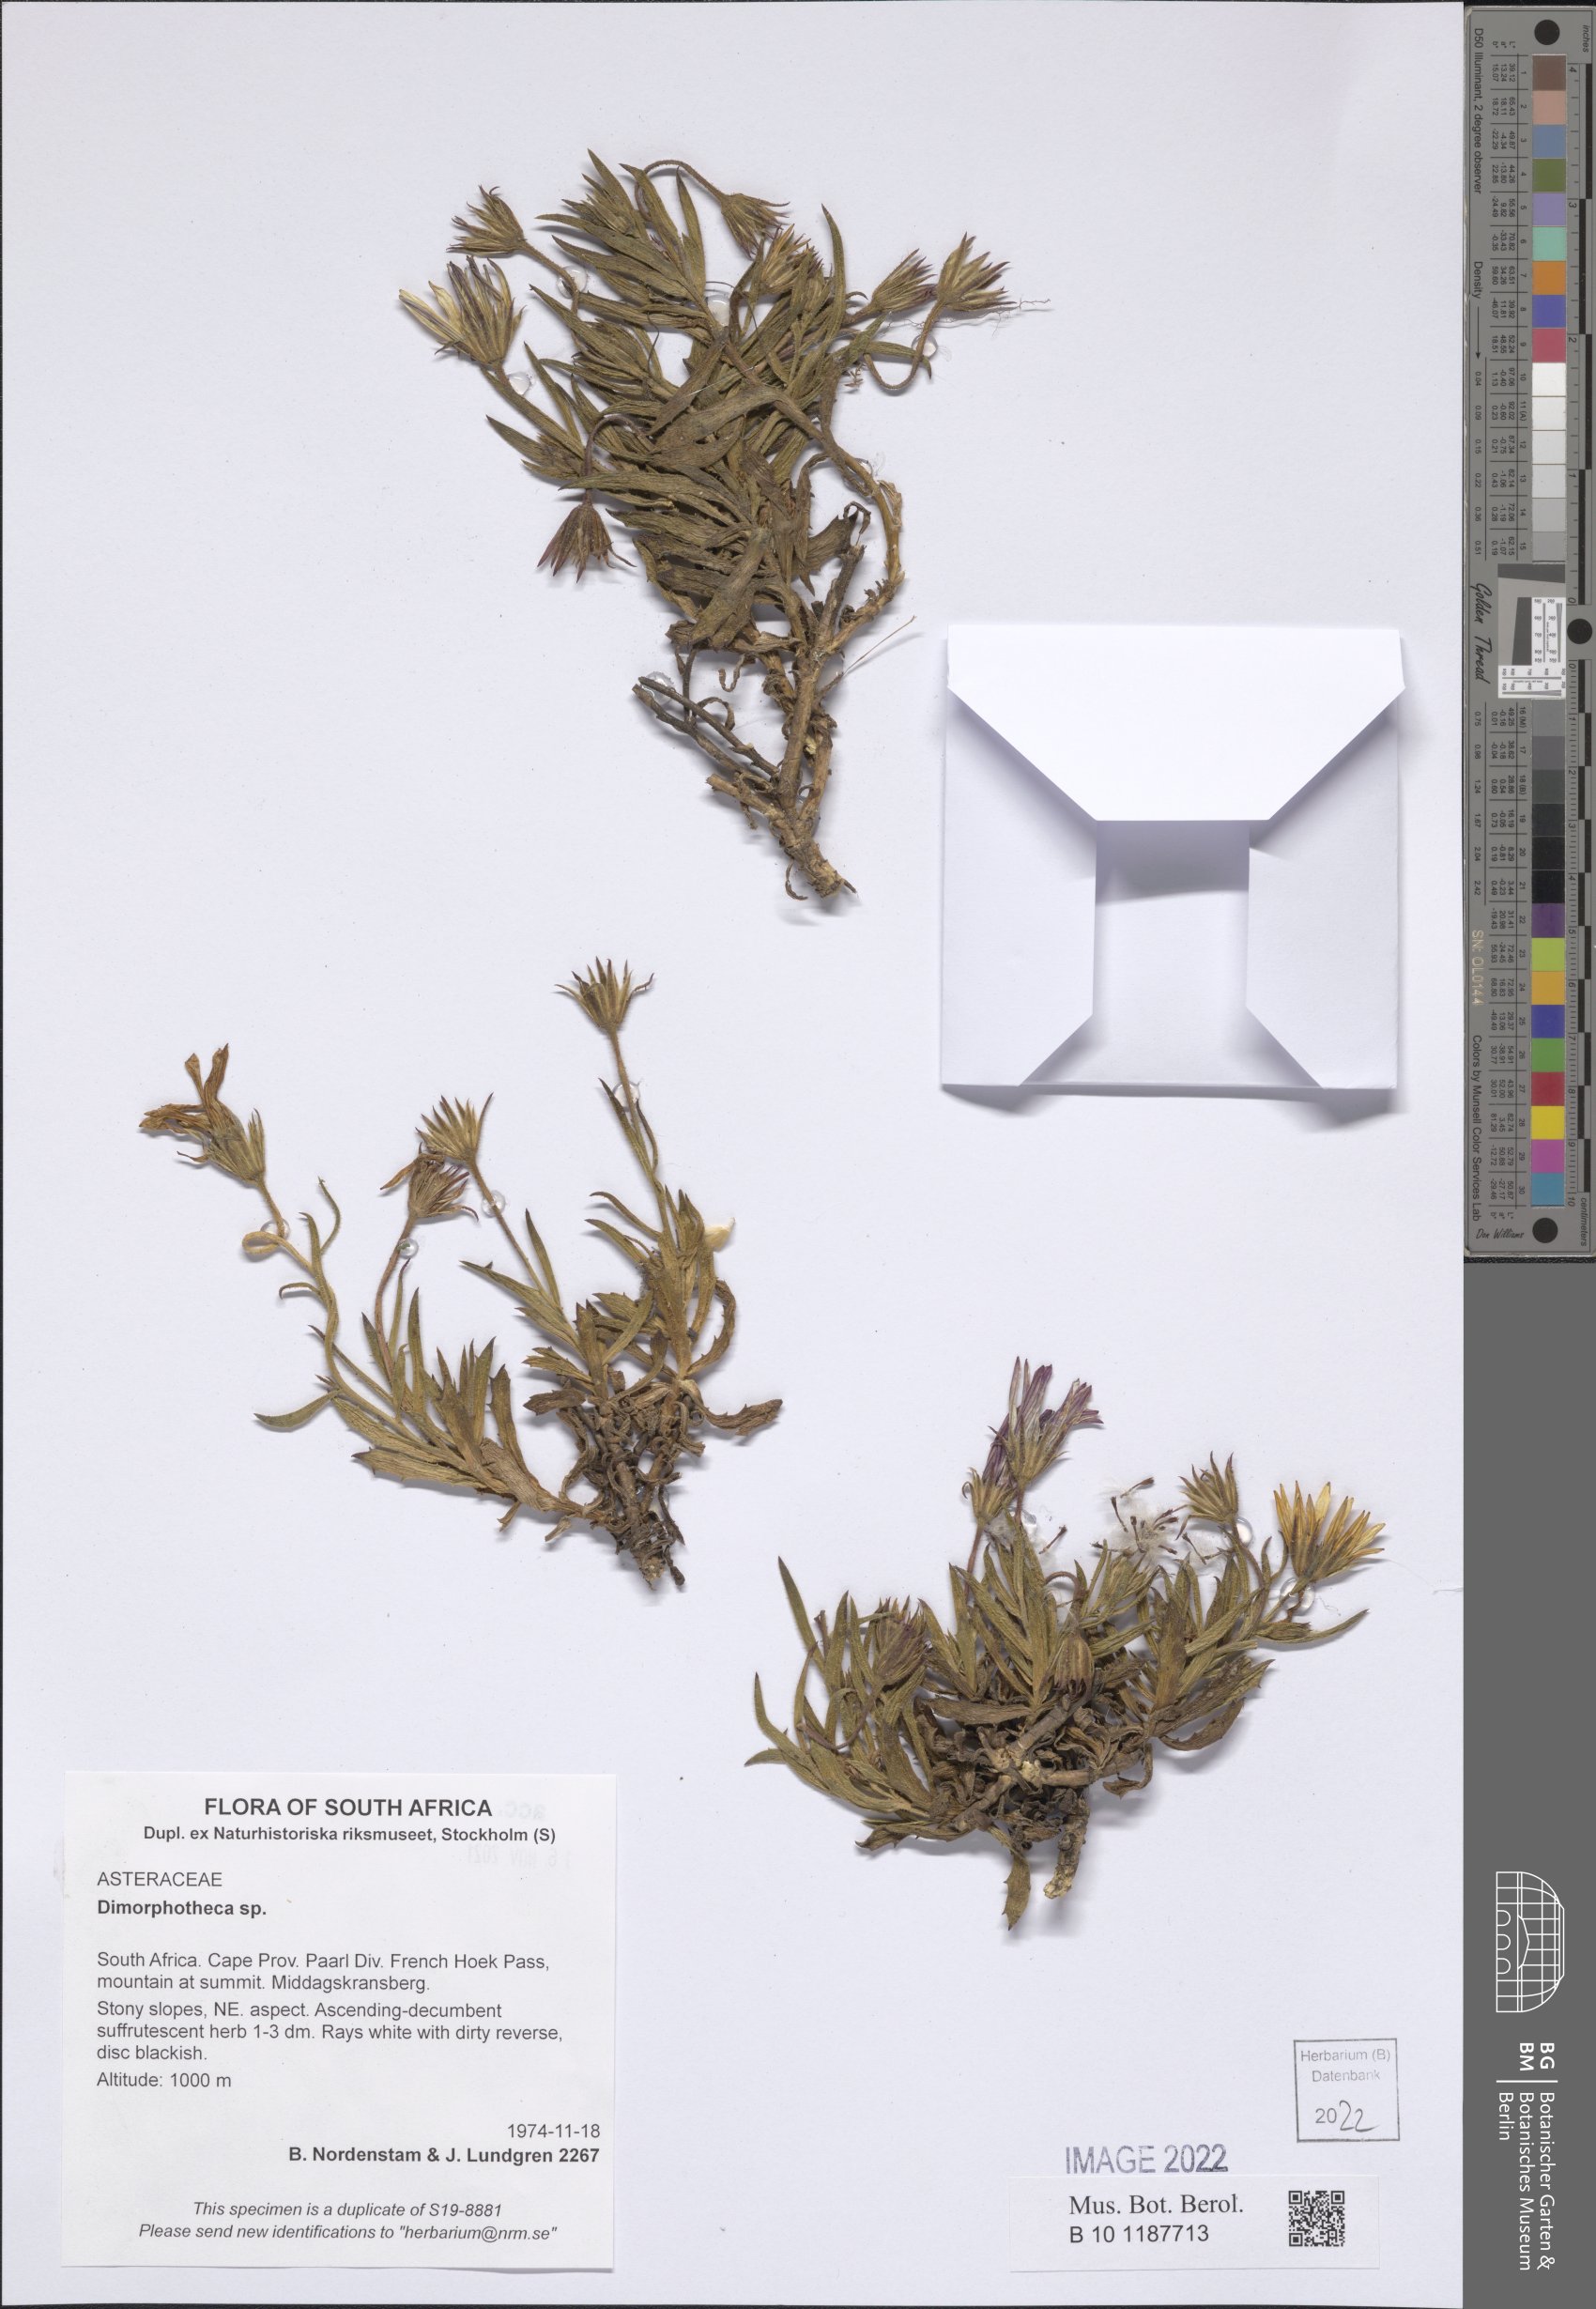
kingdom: Plantae
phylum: Tracheophyta
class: Magnoliopsida
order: Asterales
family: Asteraceae
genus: Dimorphotheca
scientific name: Dimorphotheca
